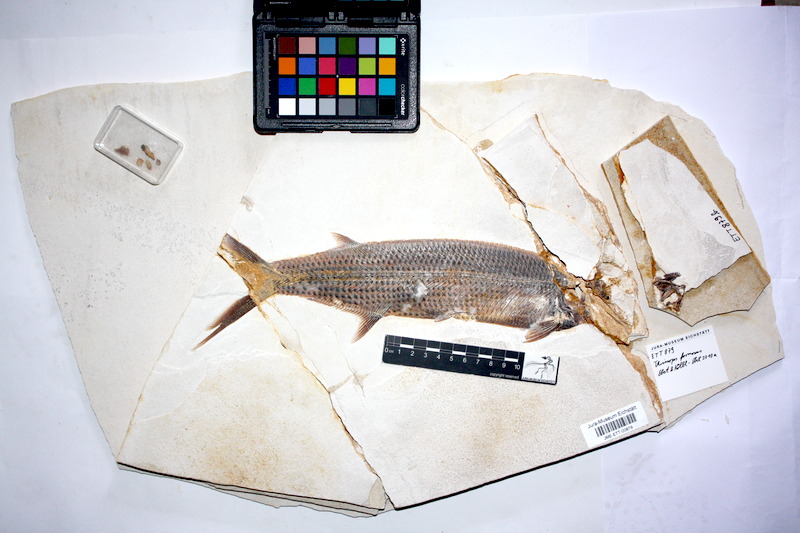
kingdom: Animalia
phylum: Chordata
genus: Thrissops
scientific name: Thrissops formosus
